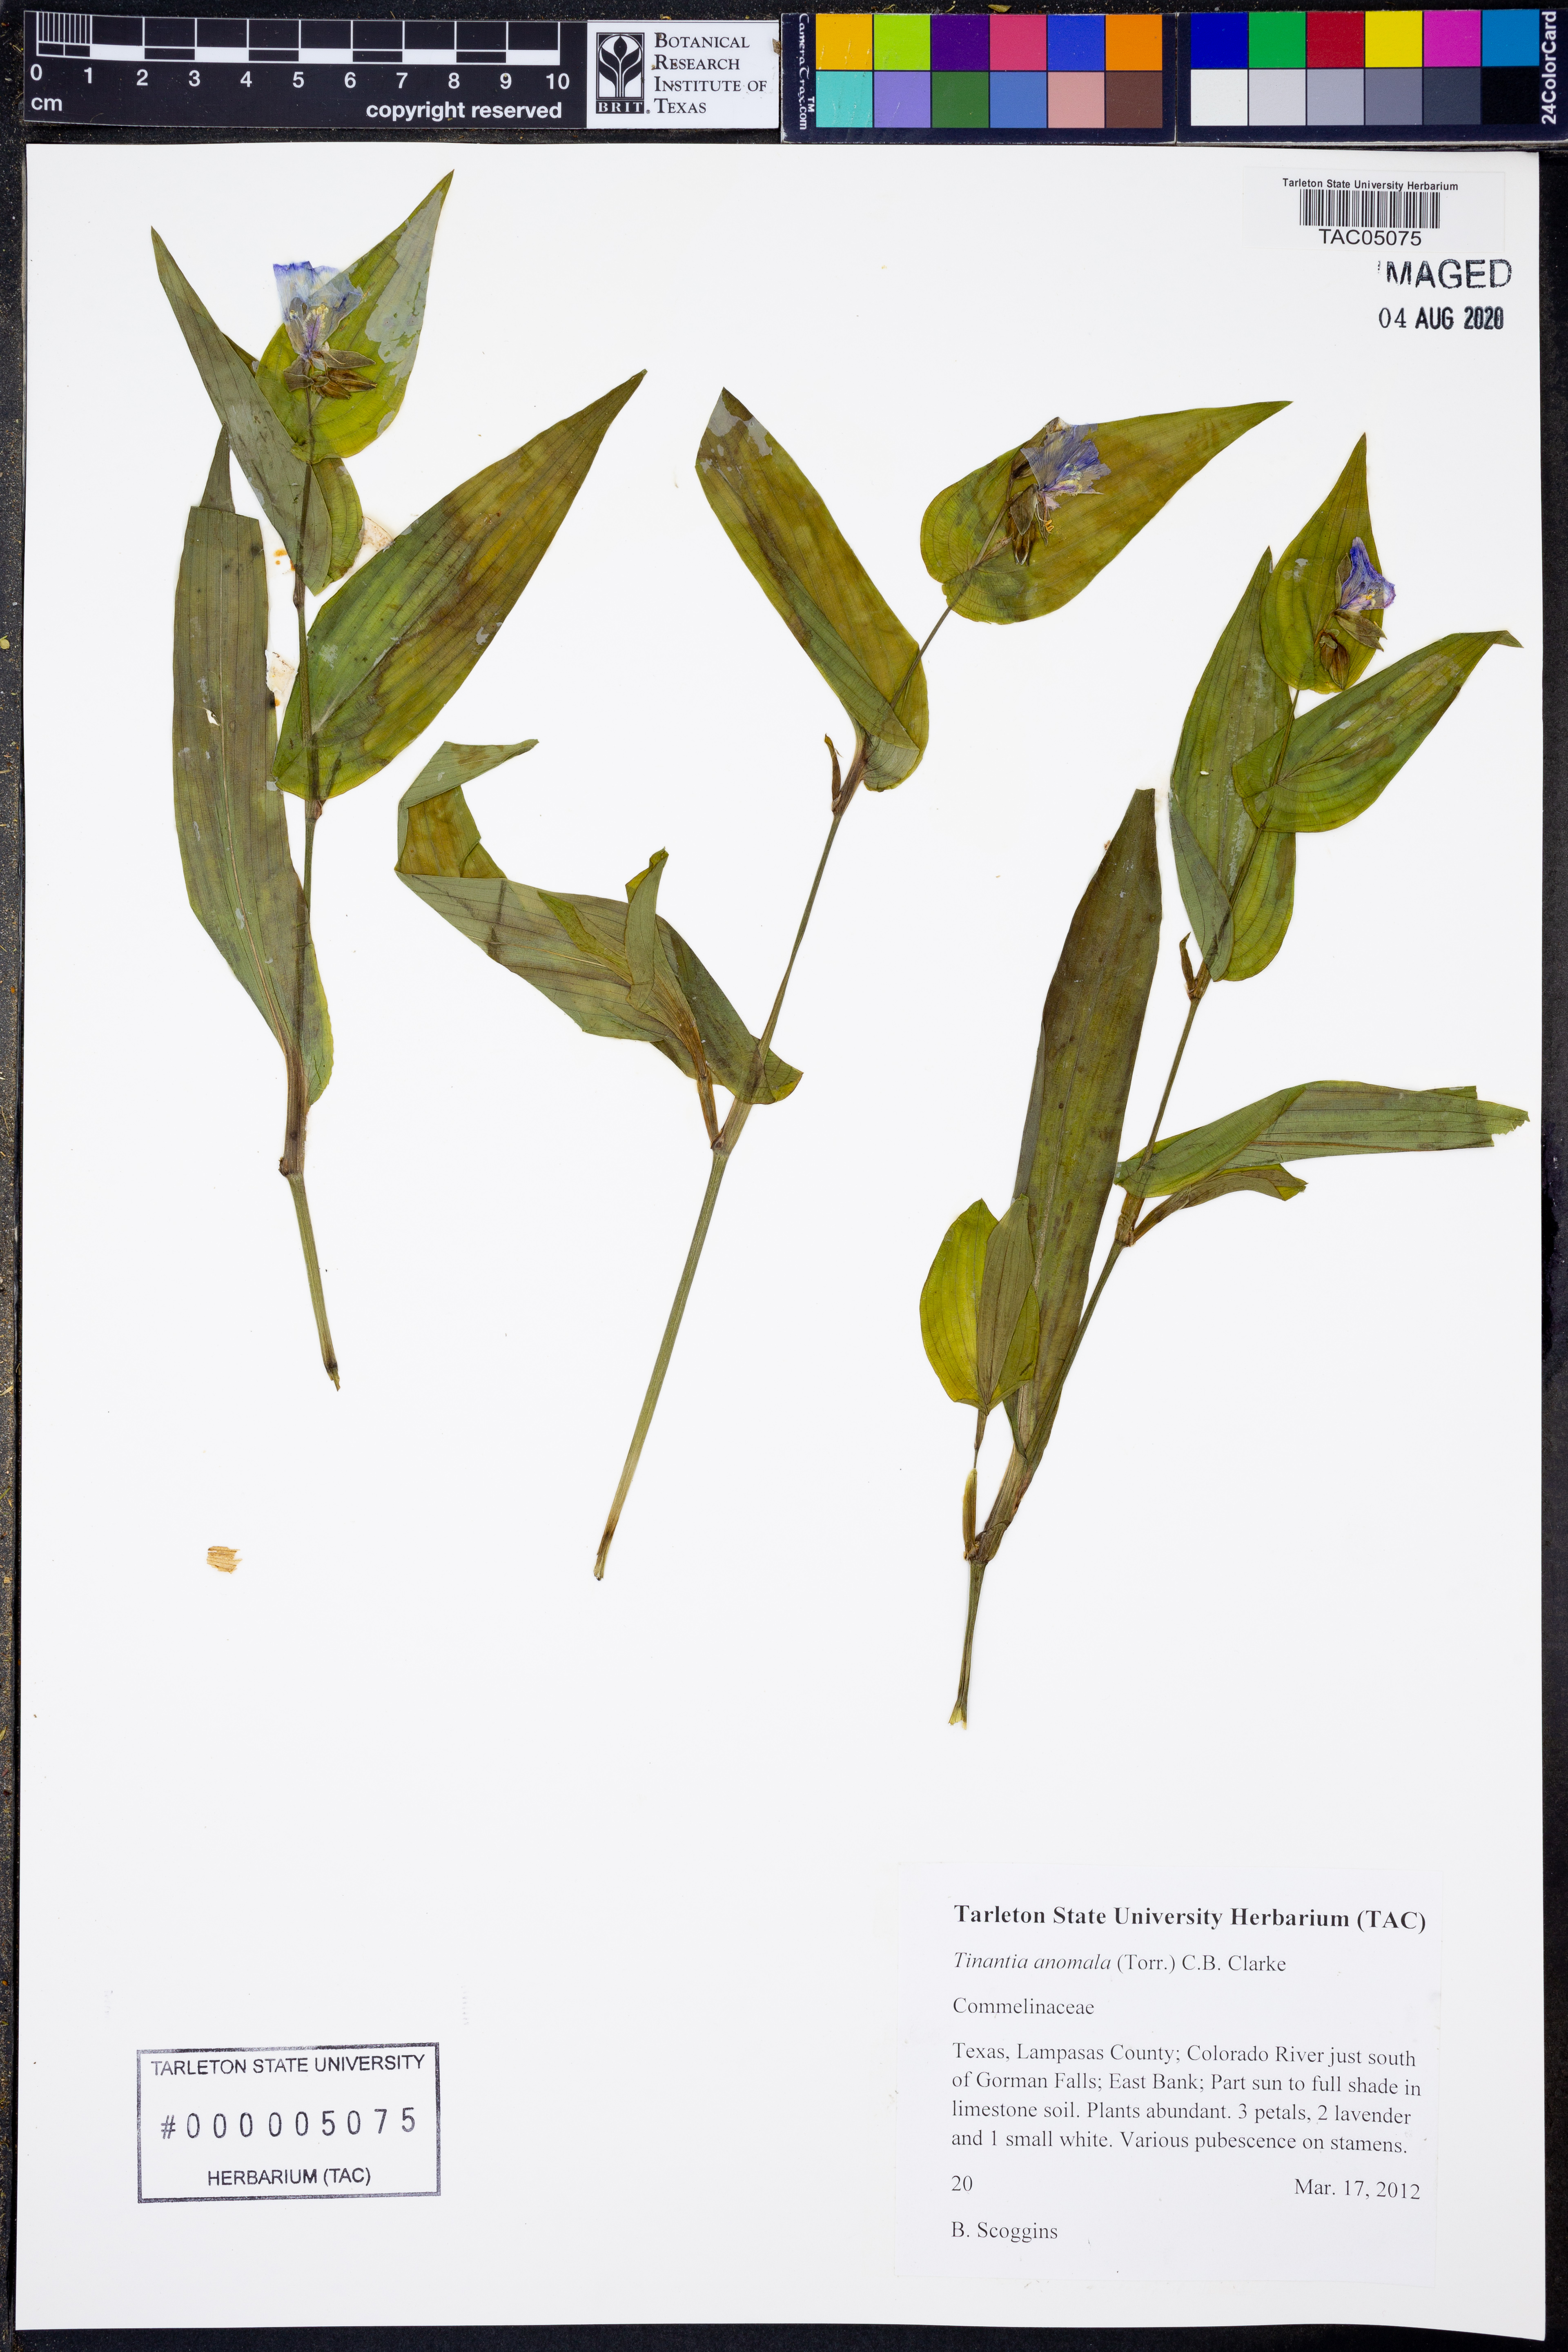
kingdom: Plantae
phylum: Tracheophyta
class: Liliopsida
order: Commelinales
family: Commelinaceae
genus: Tinantia
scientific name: Tinantia anomala
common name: False dayflower
